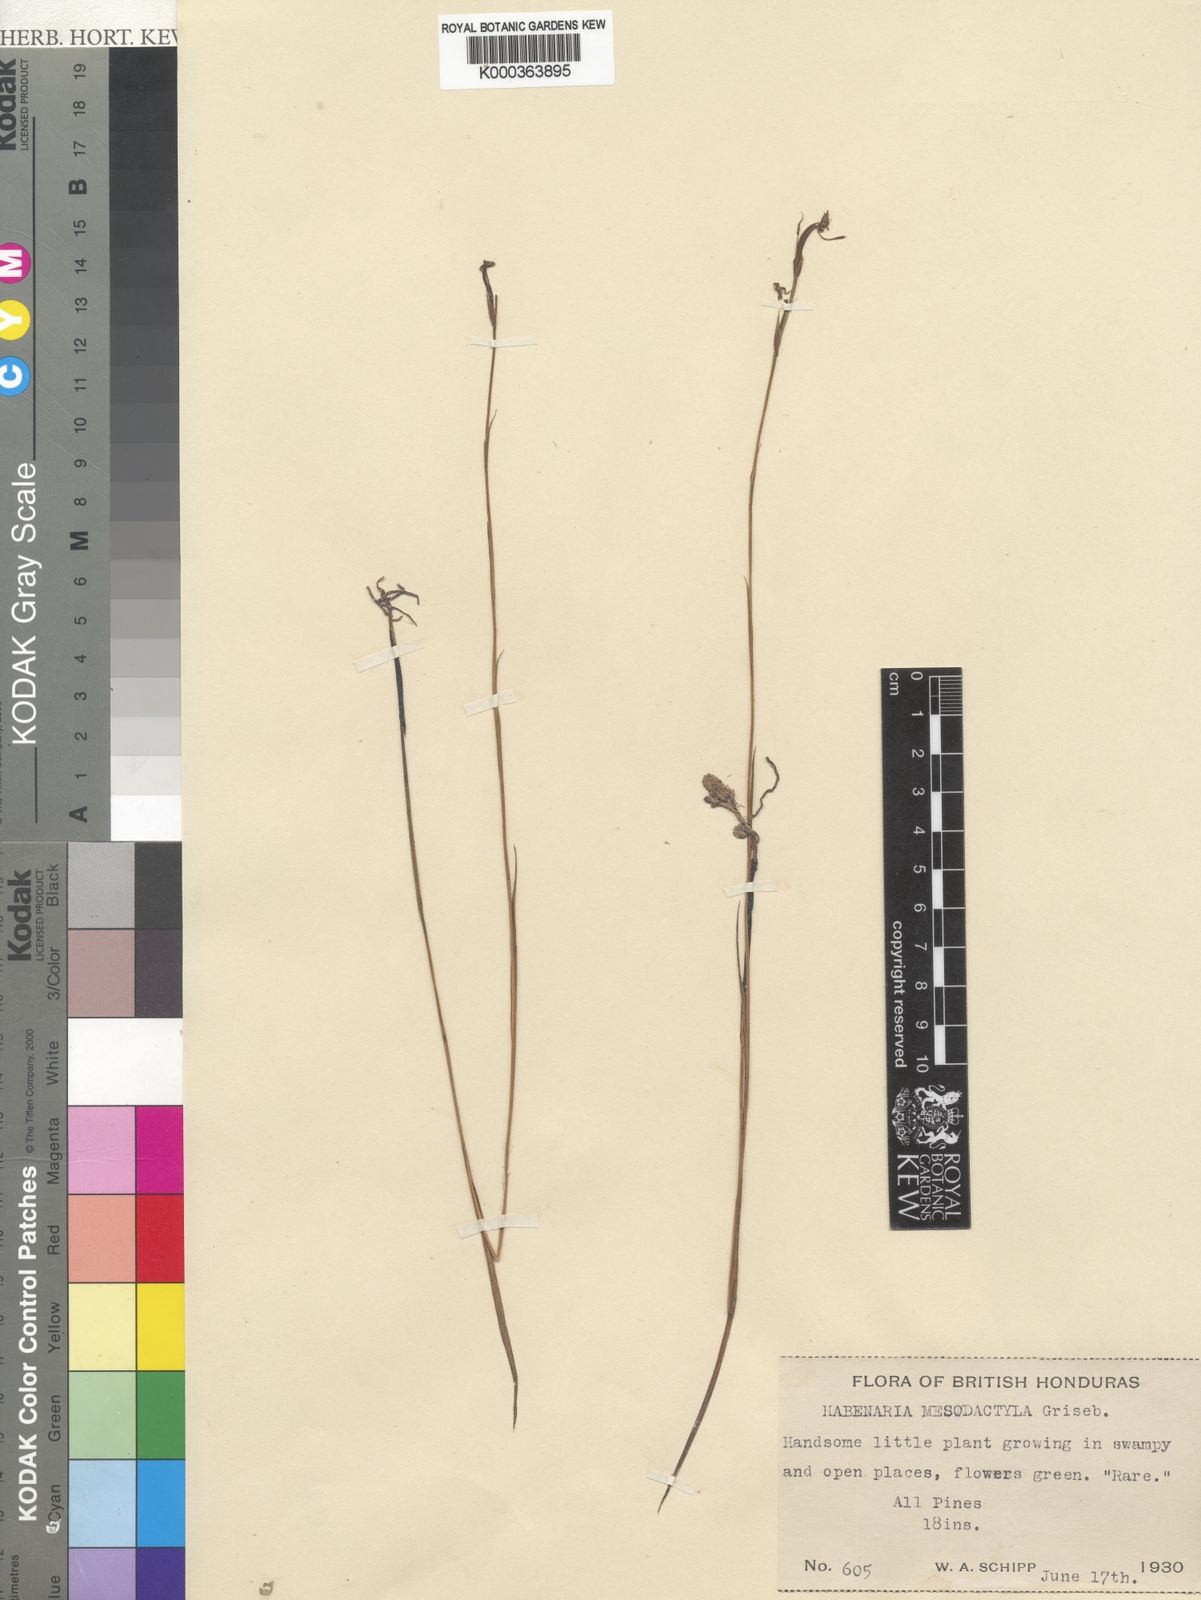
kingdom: Plantae
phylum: Tracheophyta
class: Liliopsida
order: Asparagales
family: Orchidaceae
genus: Habenaria
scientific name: Habenaria mesodactyla
